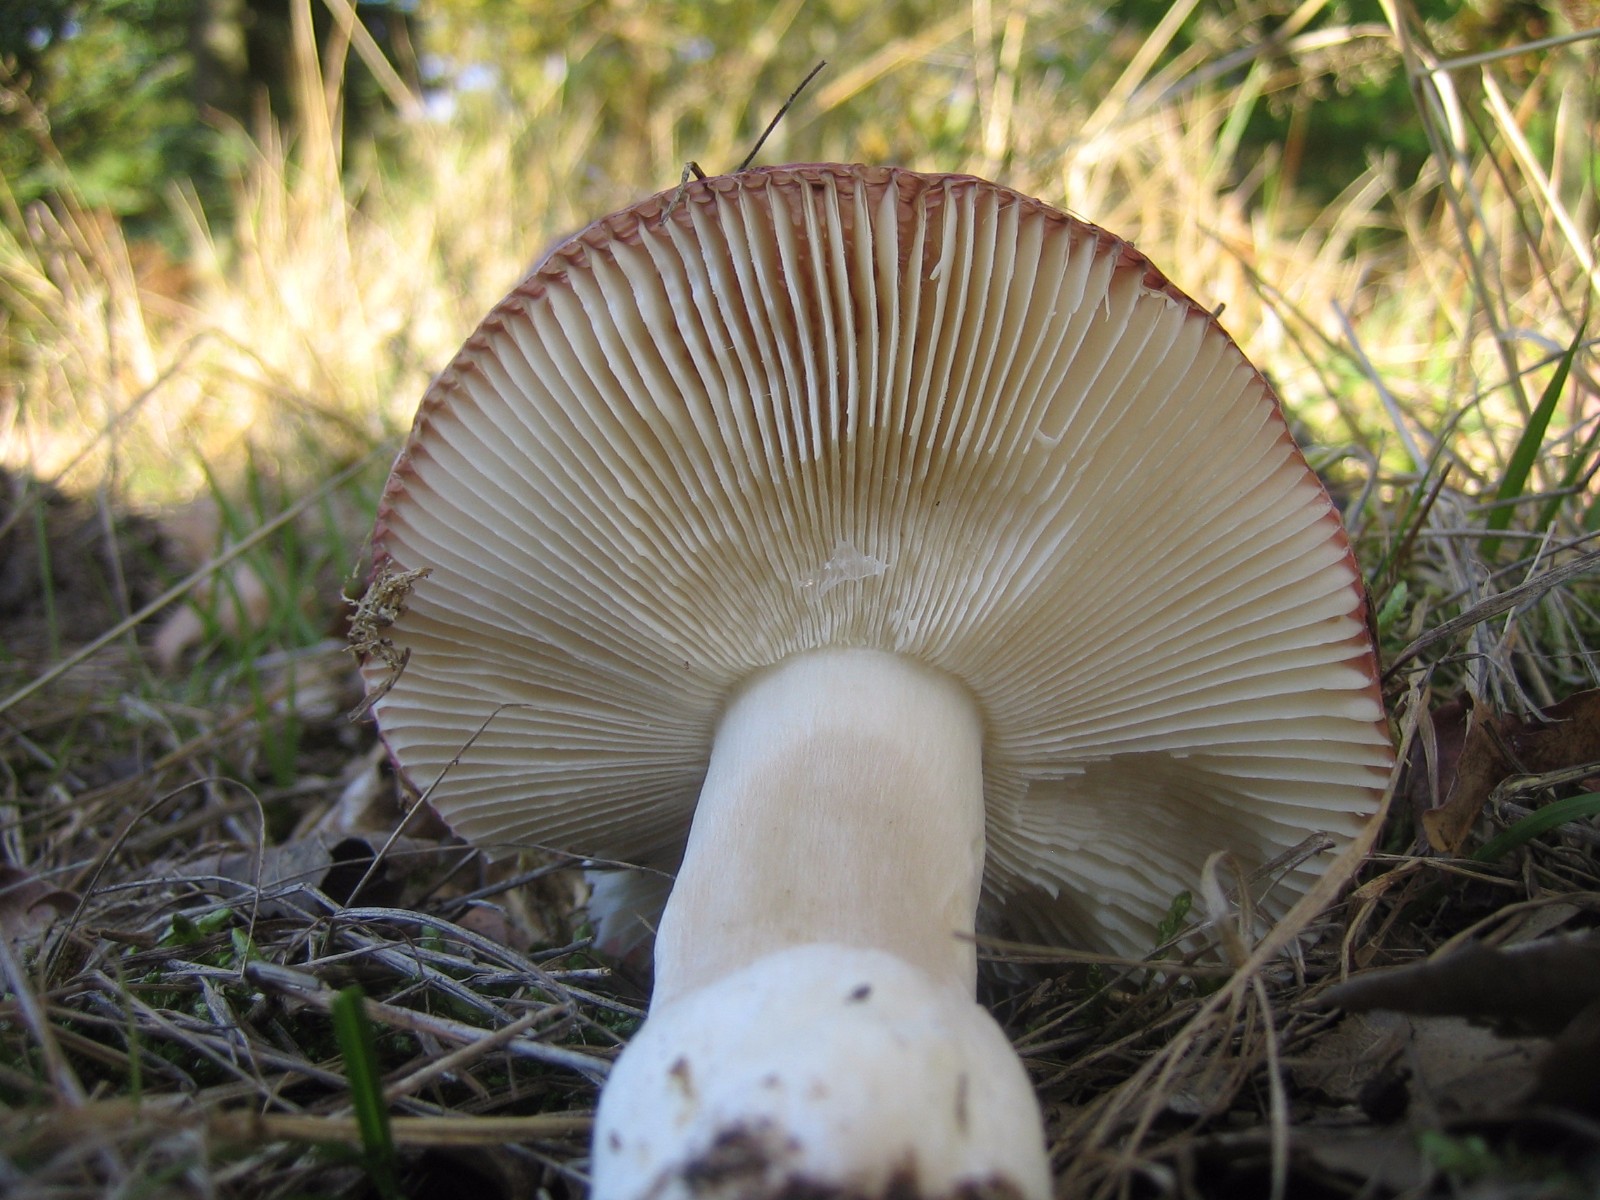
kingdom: Fungi
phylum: Basidiomycota
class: Agaricomycetes
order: Russulales
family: Russulaceae
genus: Russula
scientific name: Russula
